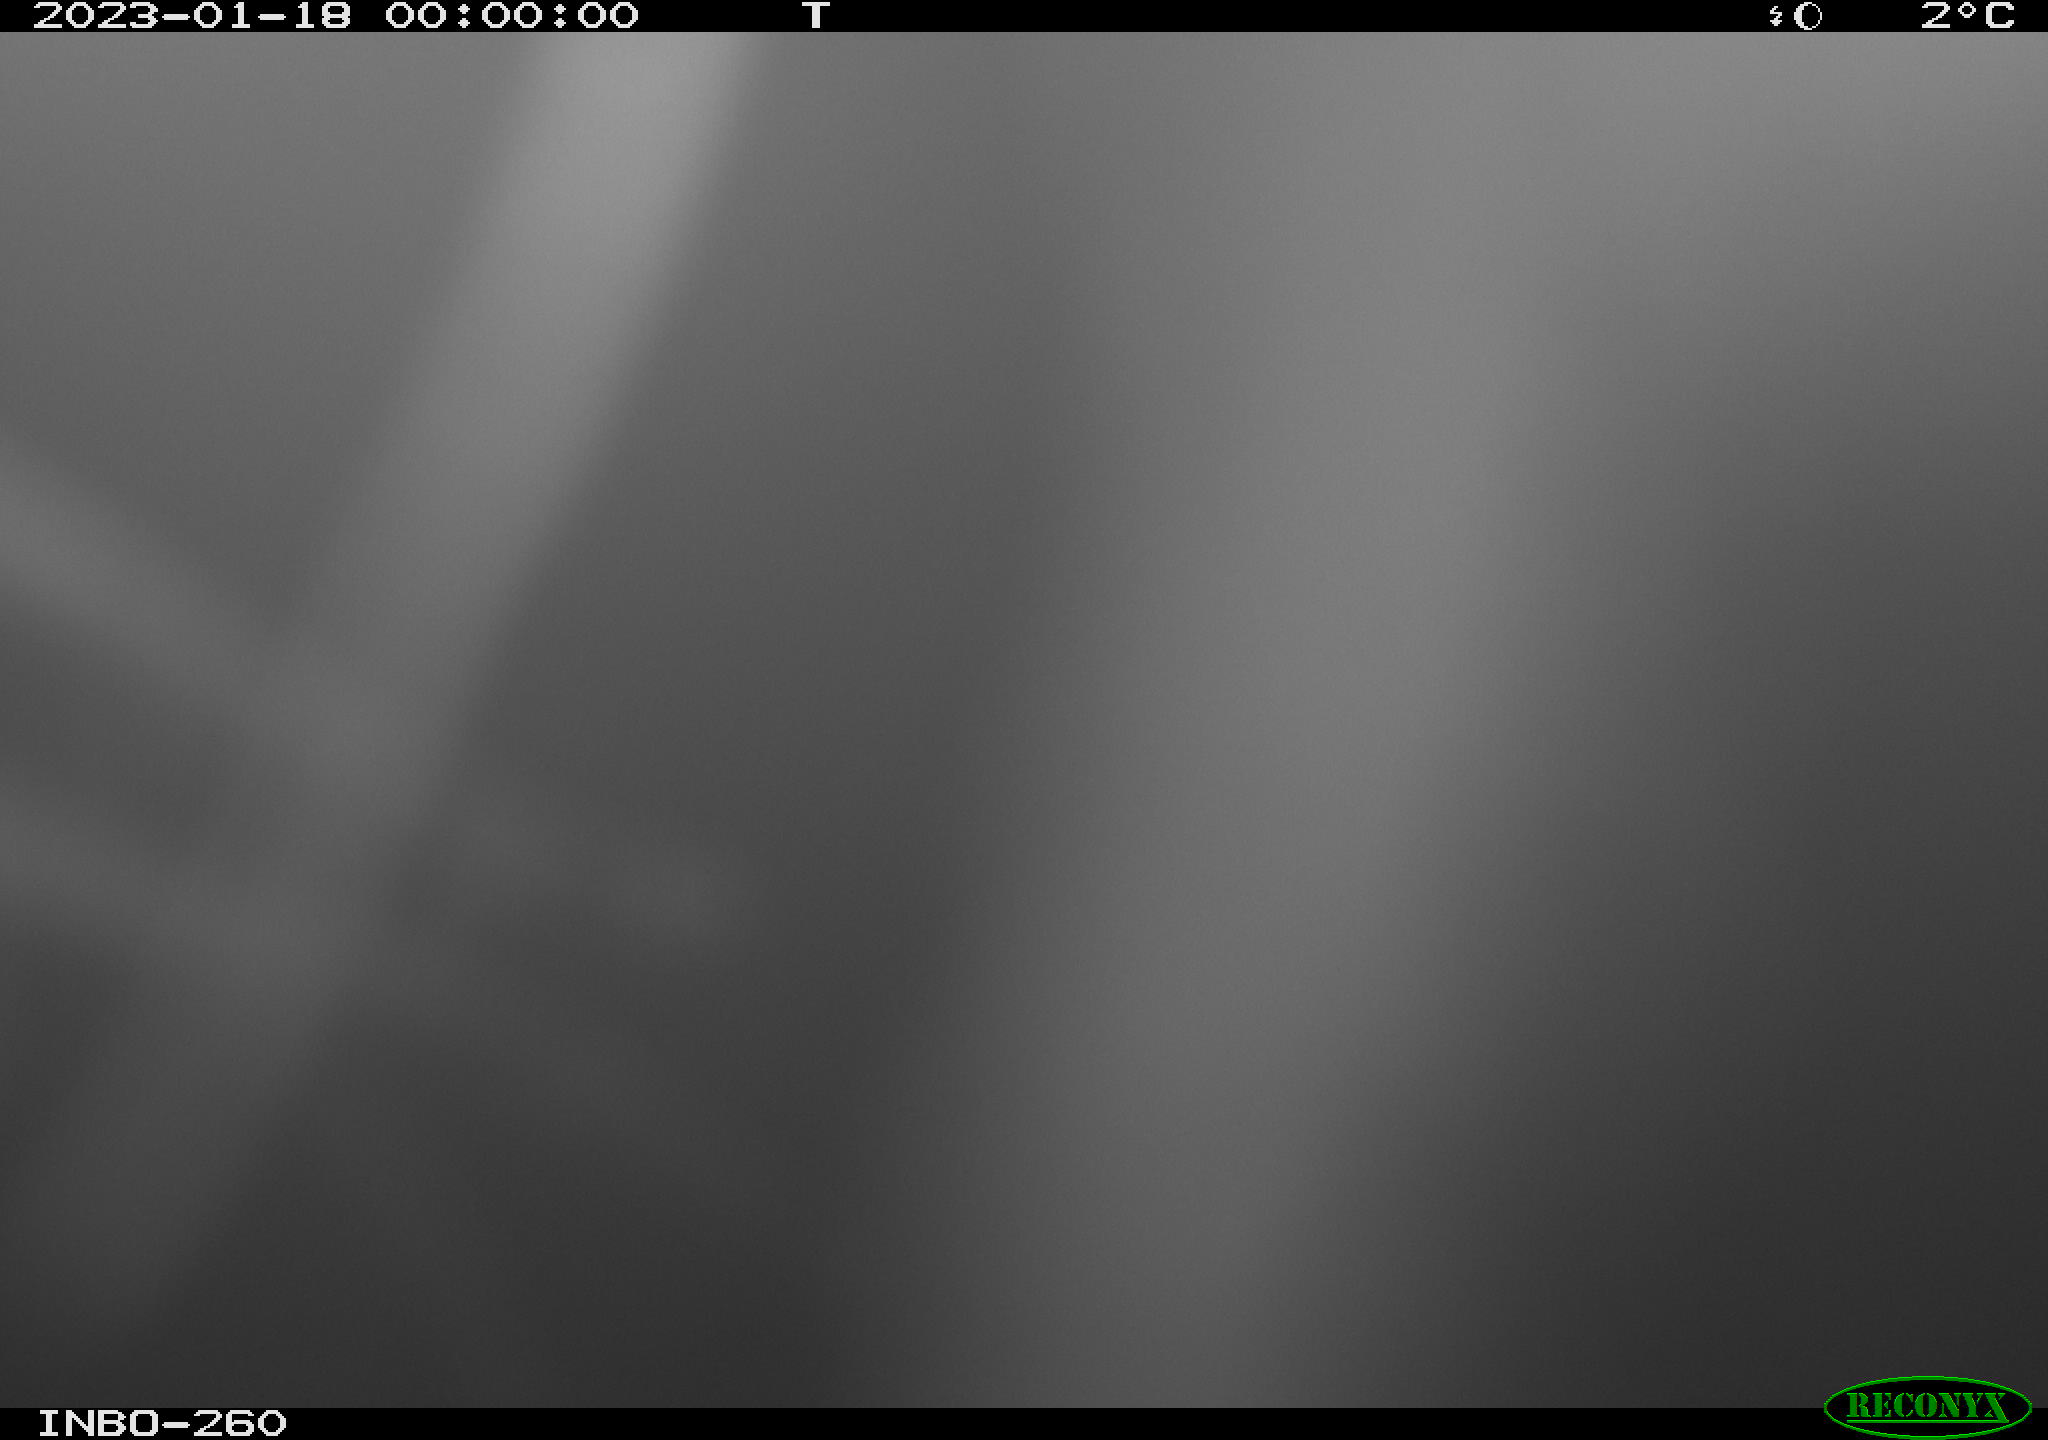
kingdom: Animalia
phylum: Chordata
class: Mammalia
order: Rodentia
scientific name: Rodentia
